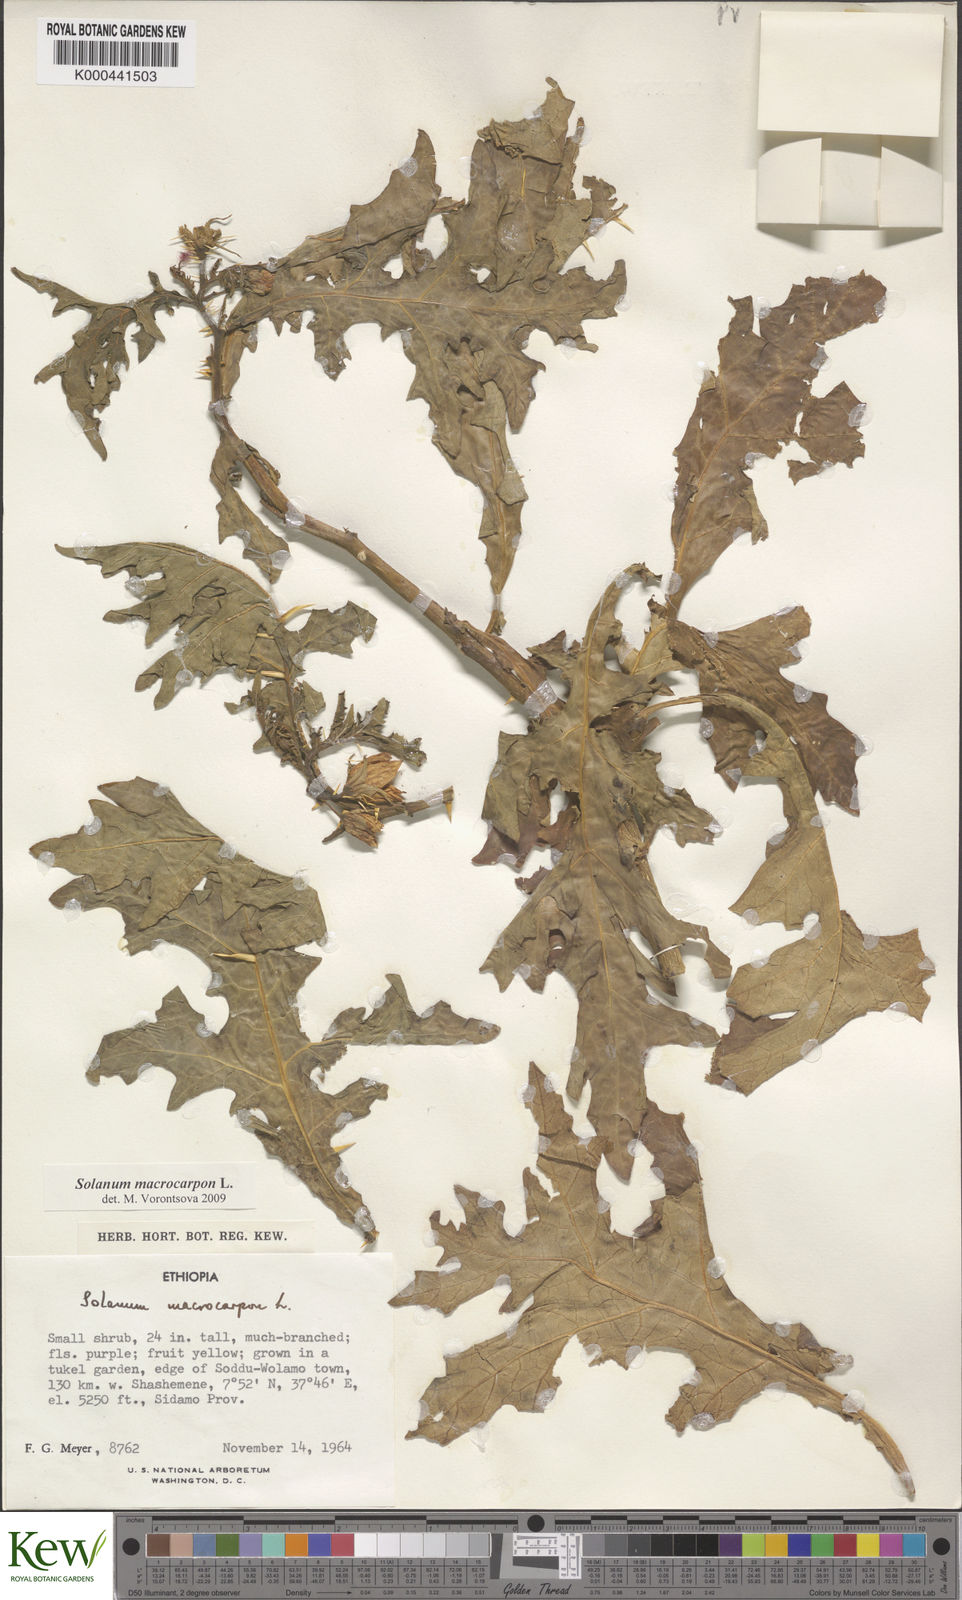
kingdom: Plantae
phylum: Tracheophyta
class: Magnoliopsida
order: Solanales
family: Solanaceae
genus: Solanum
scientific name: Solanum macrocarpon
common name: African eggplant
